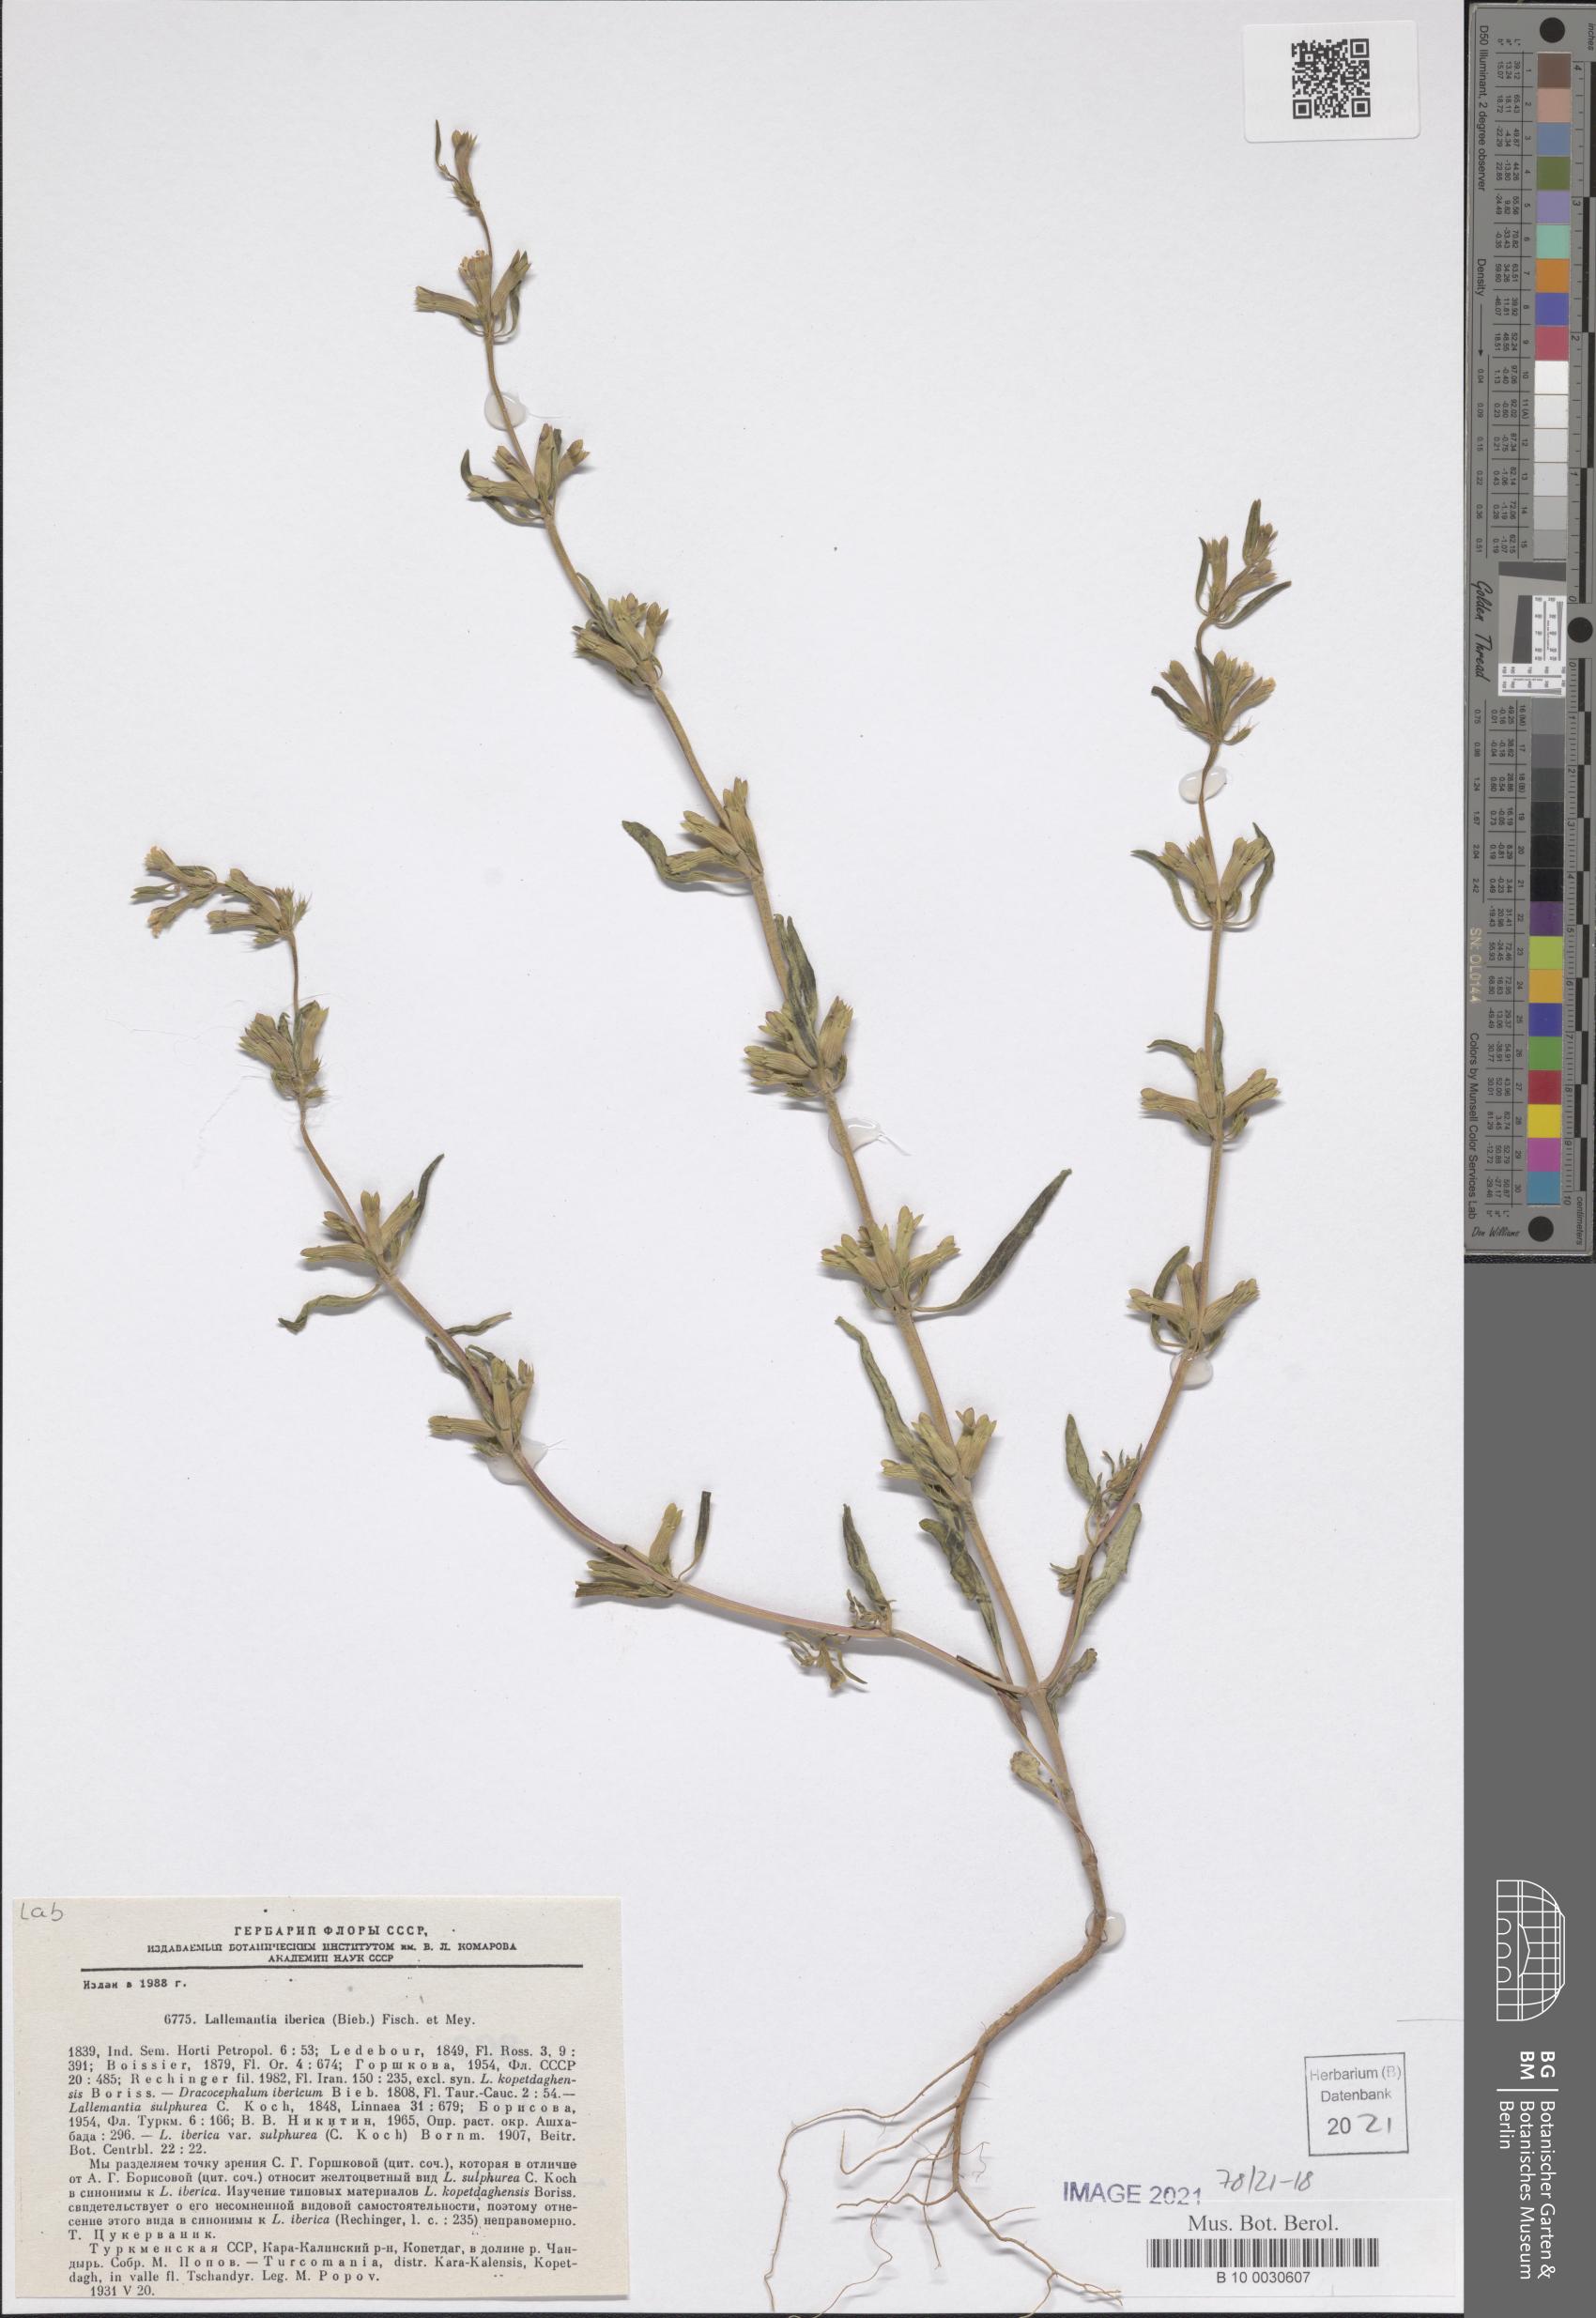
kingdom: Plantae
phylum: Tracheophyta
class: Magnoliopsida
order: Lamiales
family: Lamiaceae
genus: Lallemantia
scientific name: Lallemantia iberica
